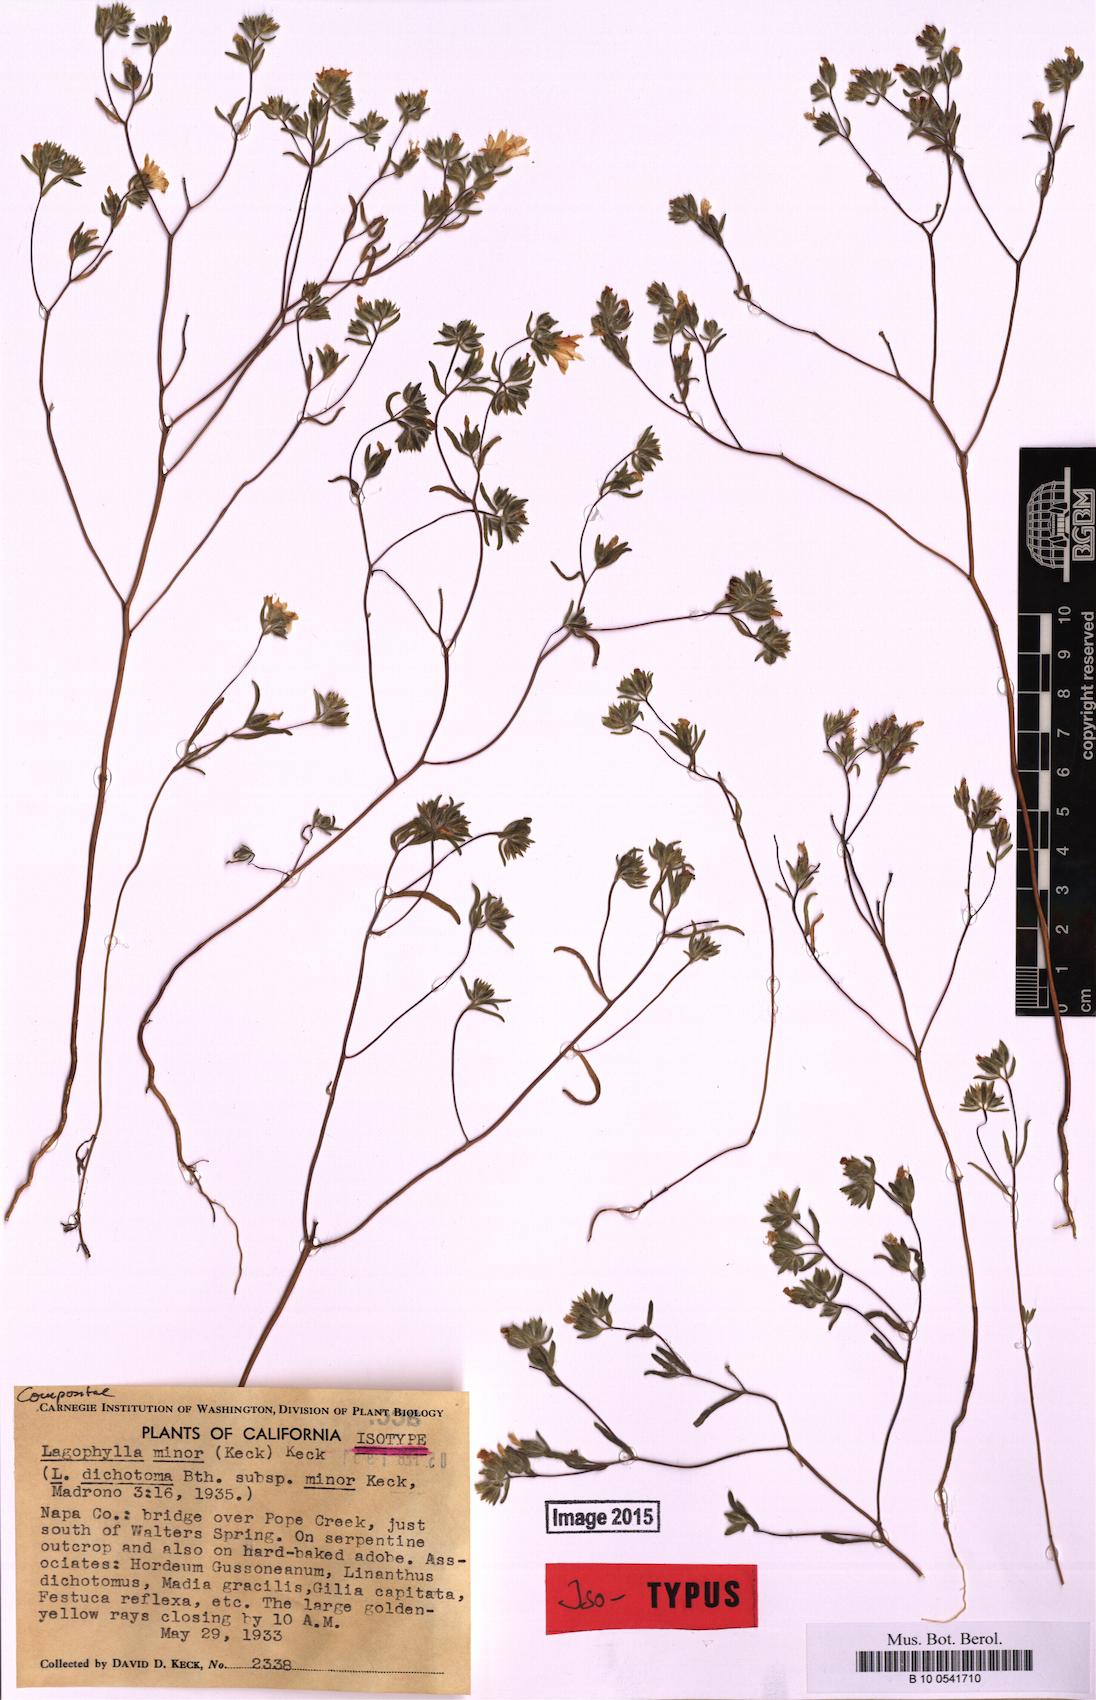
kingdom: Plantae
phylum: Tracheophyta
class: Magnoliopsida
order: Asterales
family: Asteraceae
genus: Lagophylla
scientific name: Lagophylla minor
